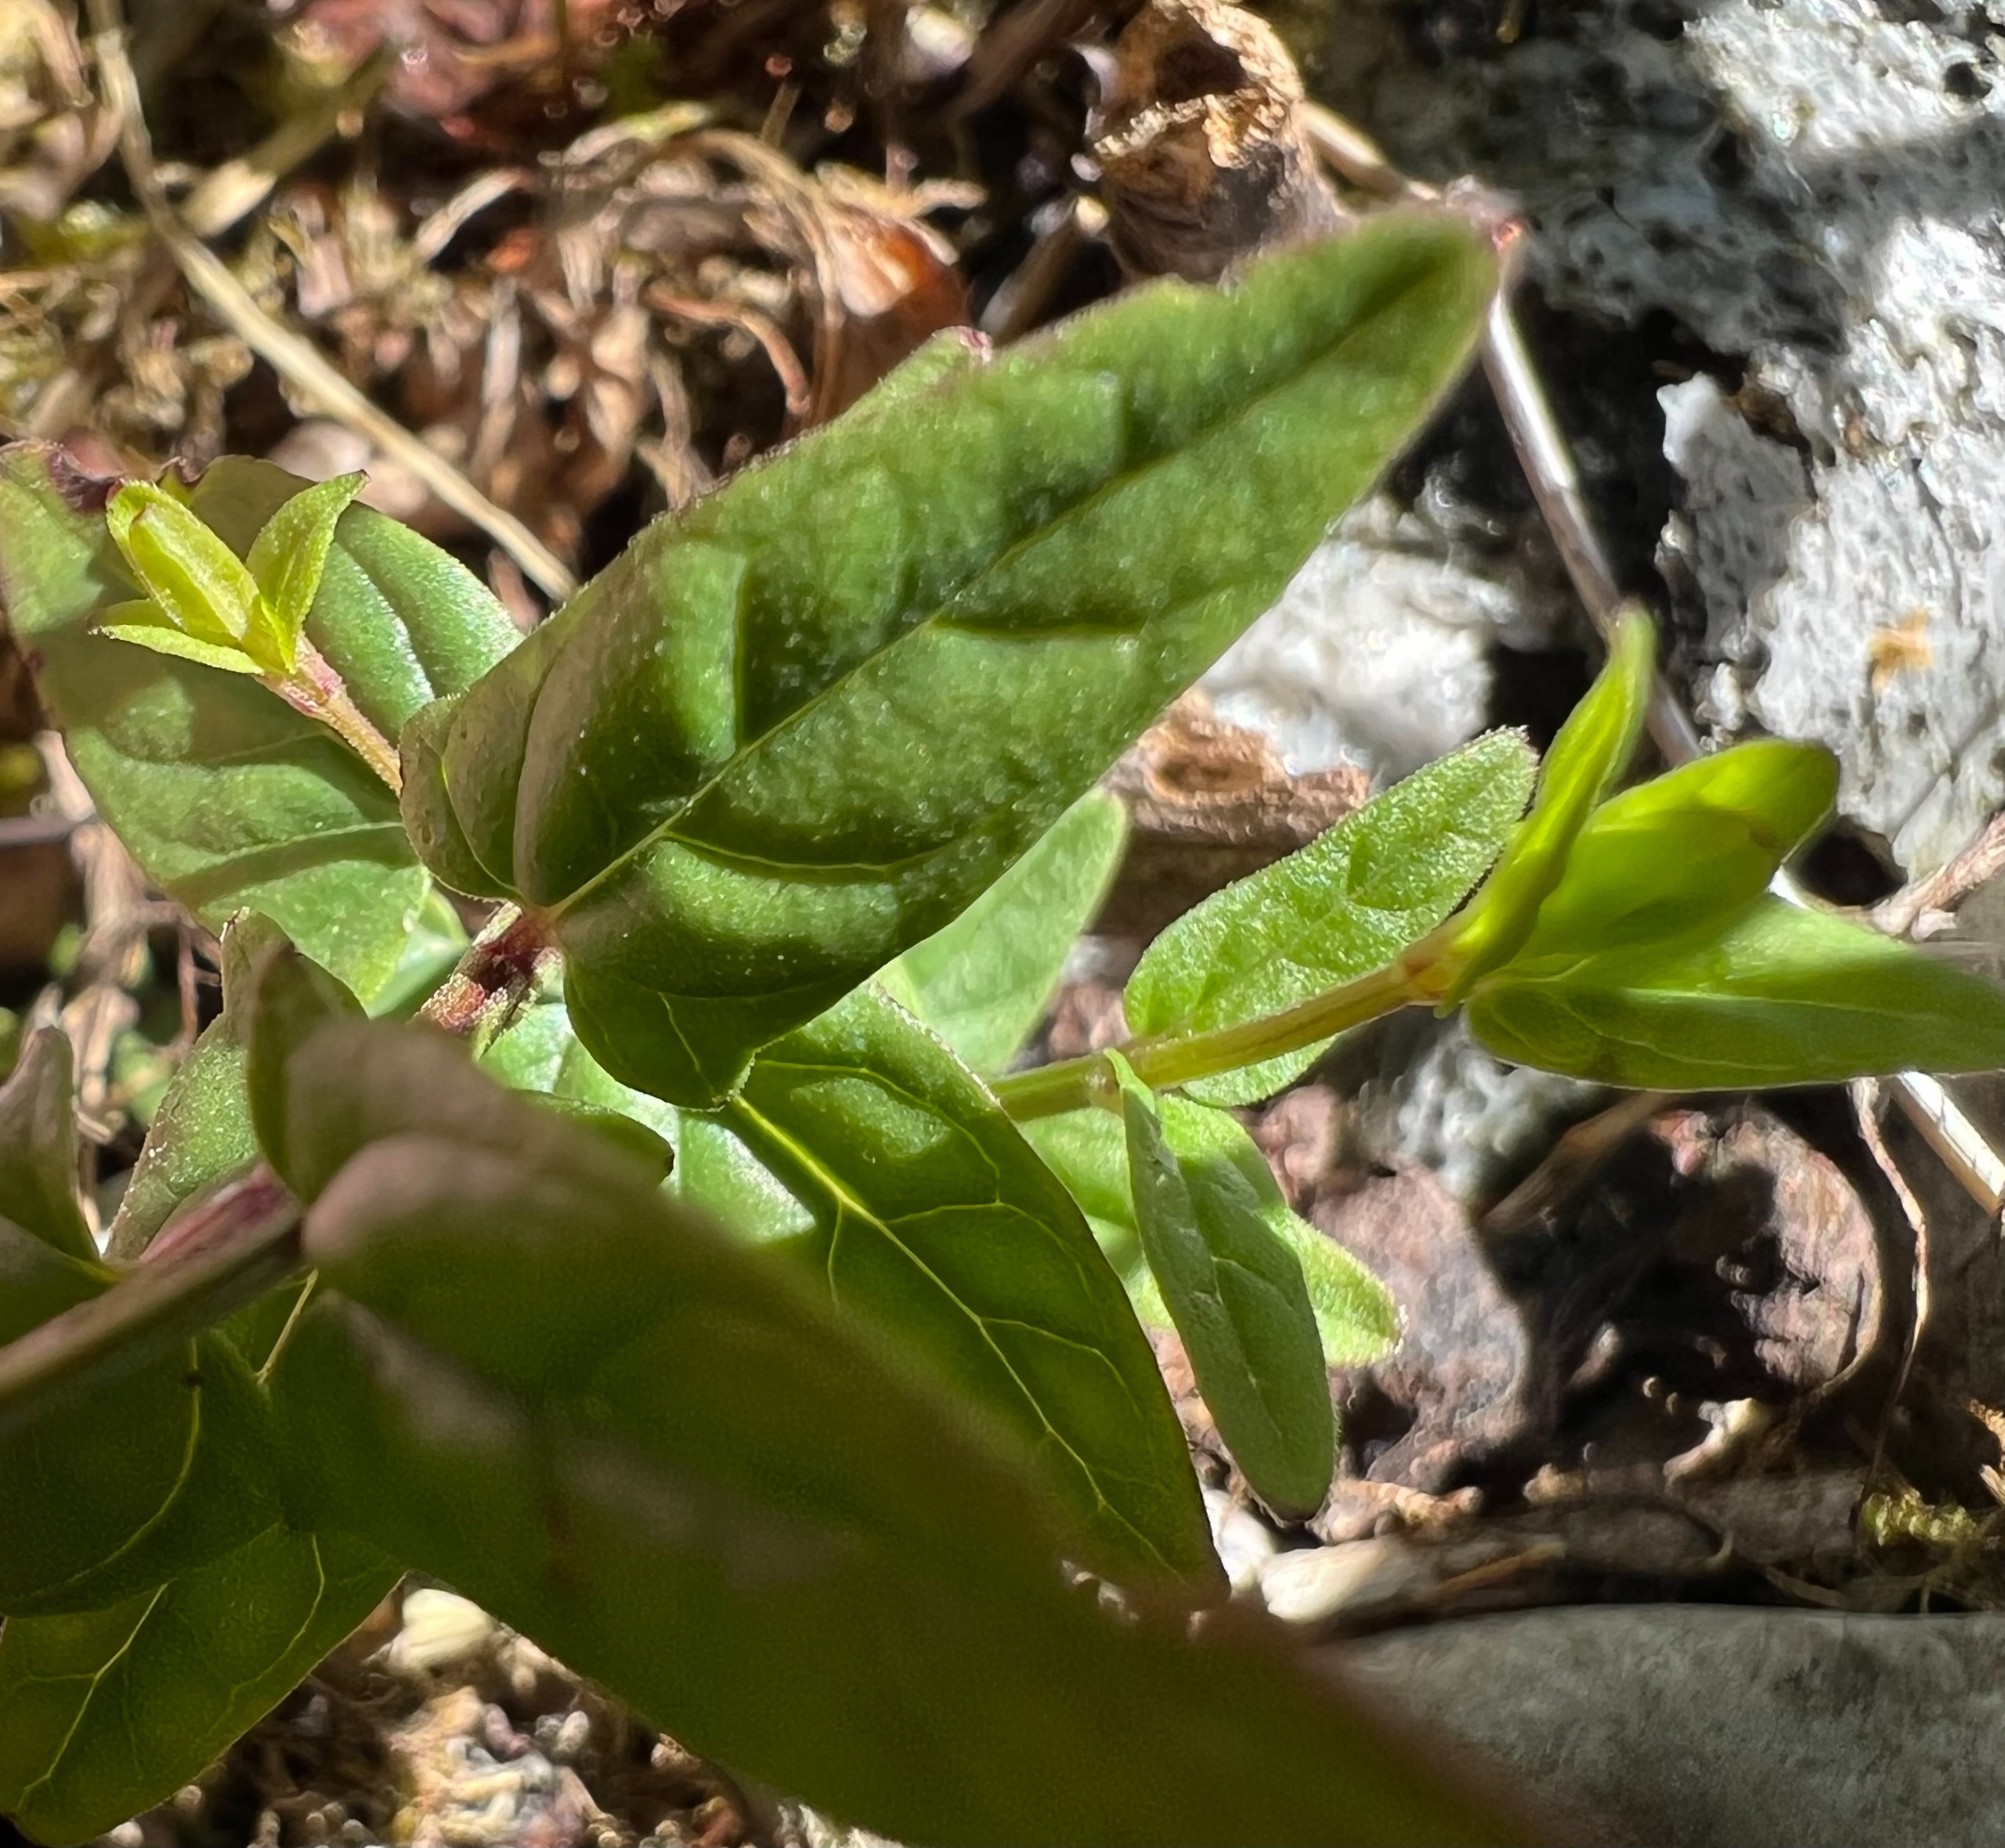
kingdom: Plantae
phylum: Tracheophyta
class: Magnoliopsida
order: Lamiales
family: Lamiaceae
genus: Scutellaria
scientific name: Scutellaria hastifolia
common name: Spydbladet skjolddrager
